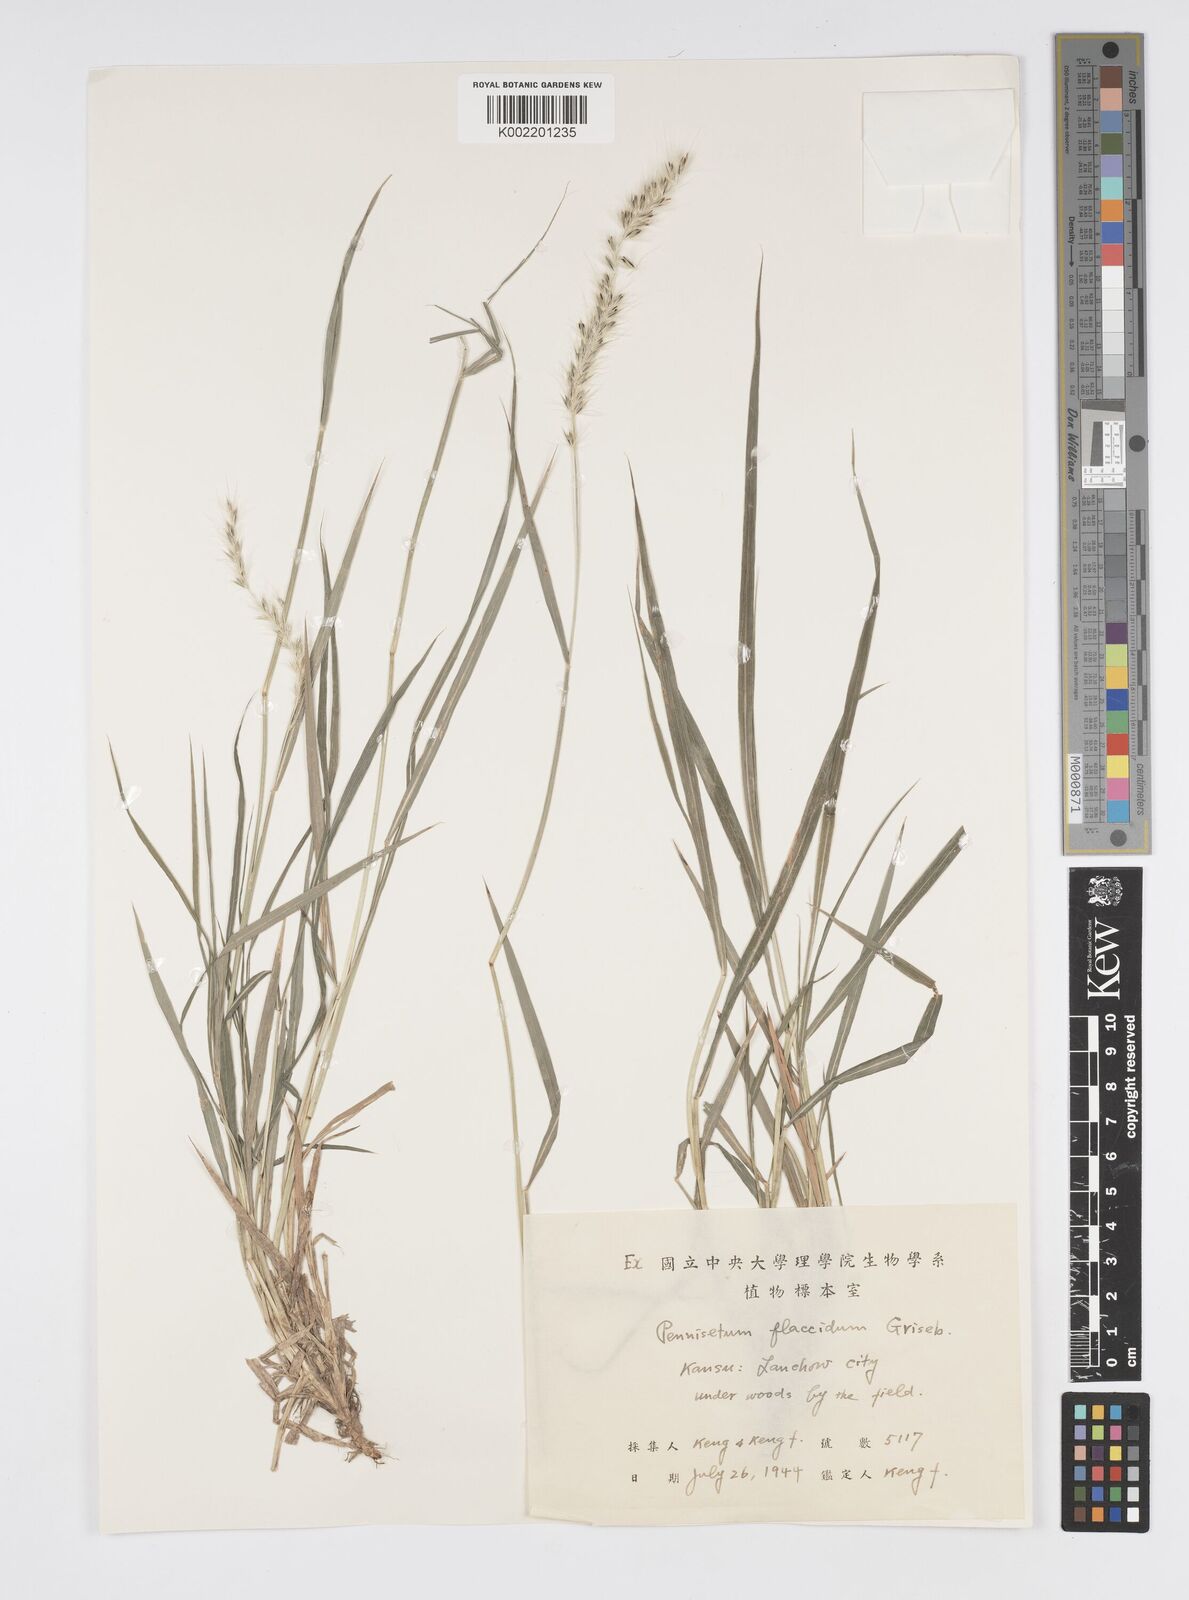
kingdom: Plantae
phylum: Tracheophyta
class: Liliopsida
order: Poales
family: Poaceae
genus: Cenchrus
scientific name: Cenchrus flaccidus
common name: Flaccid grass
